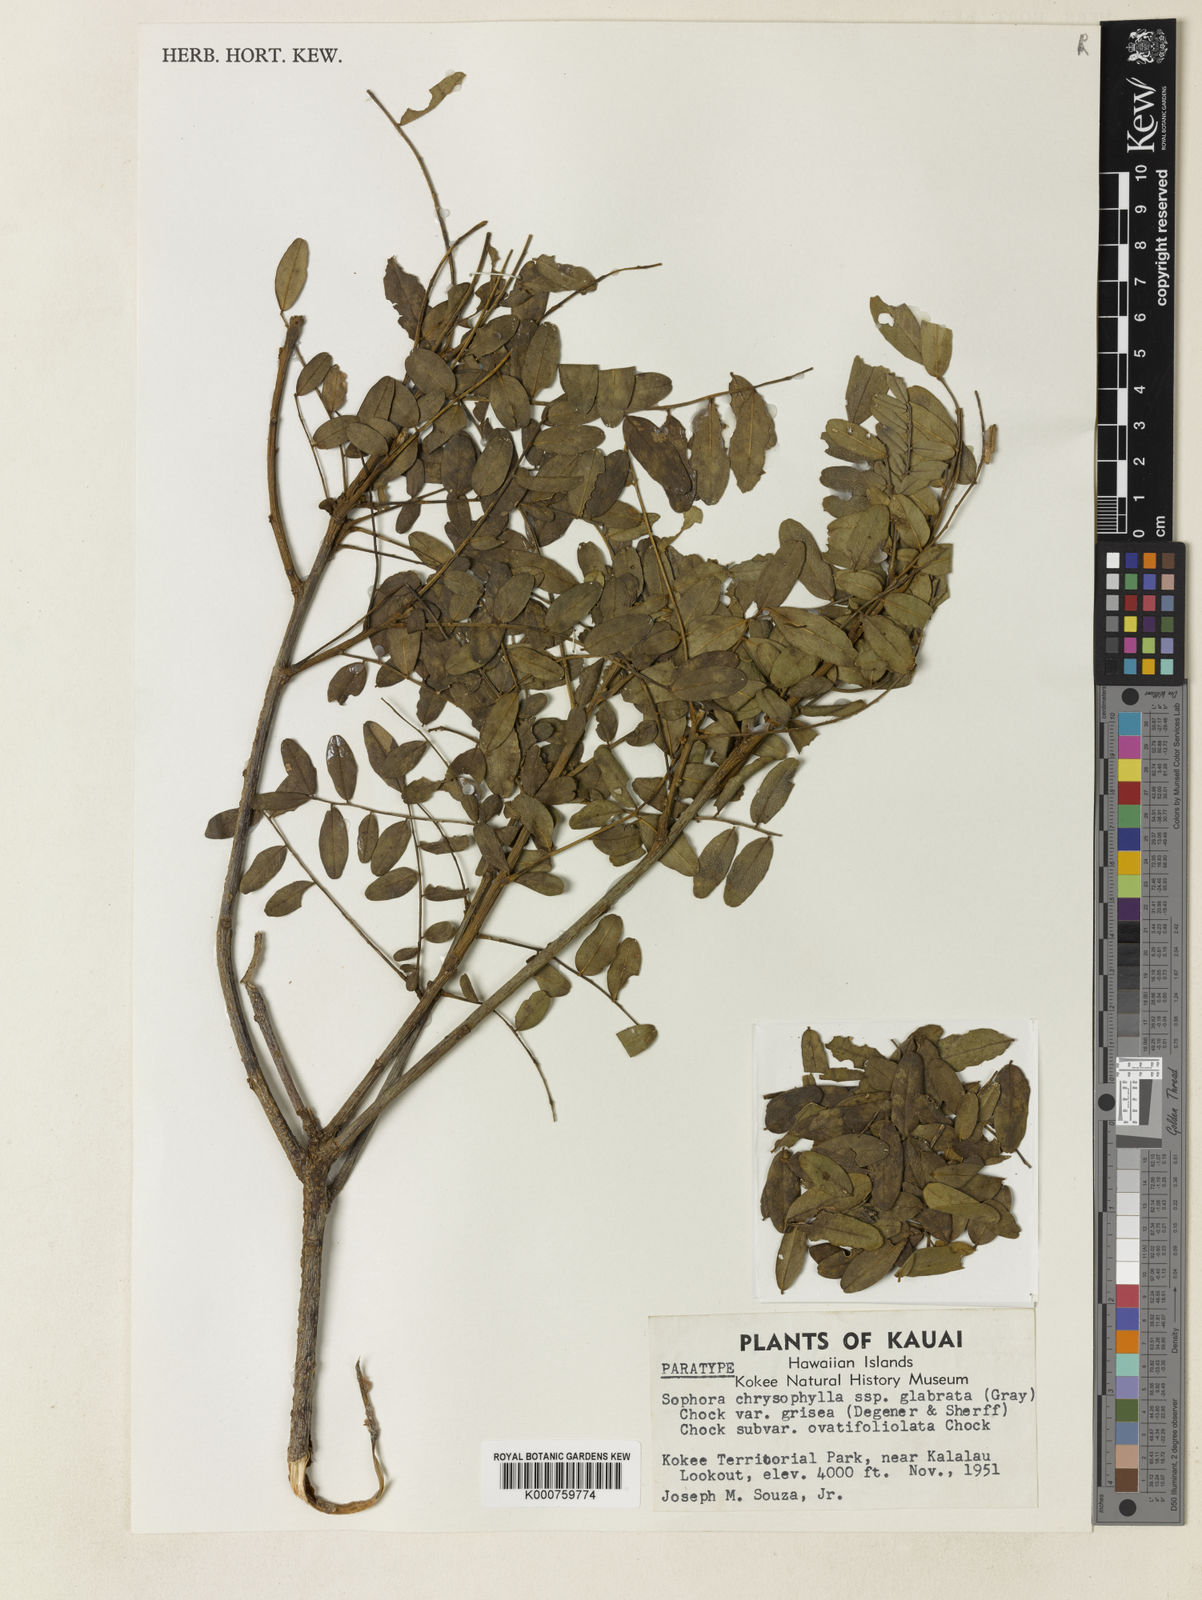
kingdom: Plantae
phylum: Tracheophyta
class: Magnoliopsida
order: Fabales
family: Fabaceae
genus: Sophora
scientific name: Sophora chrysophylla
